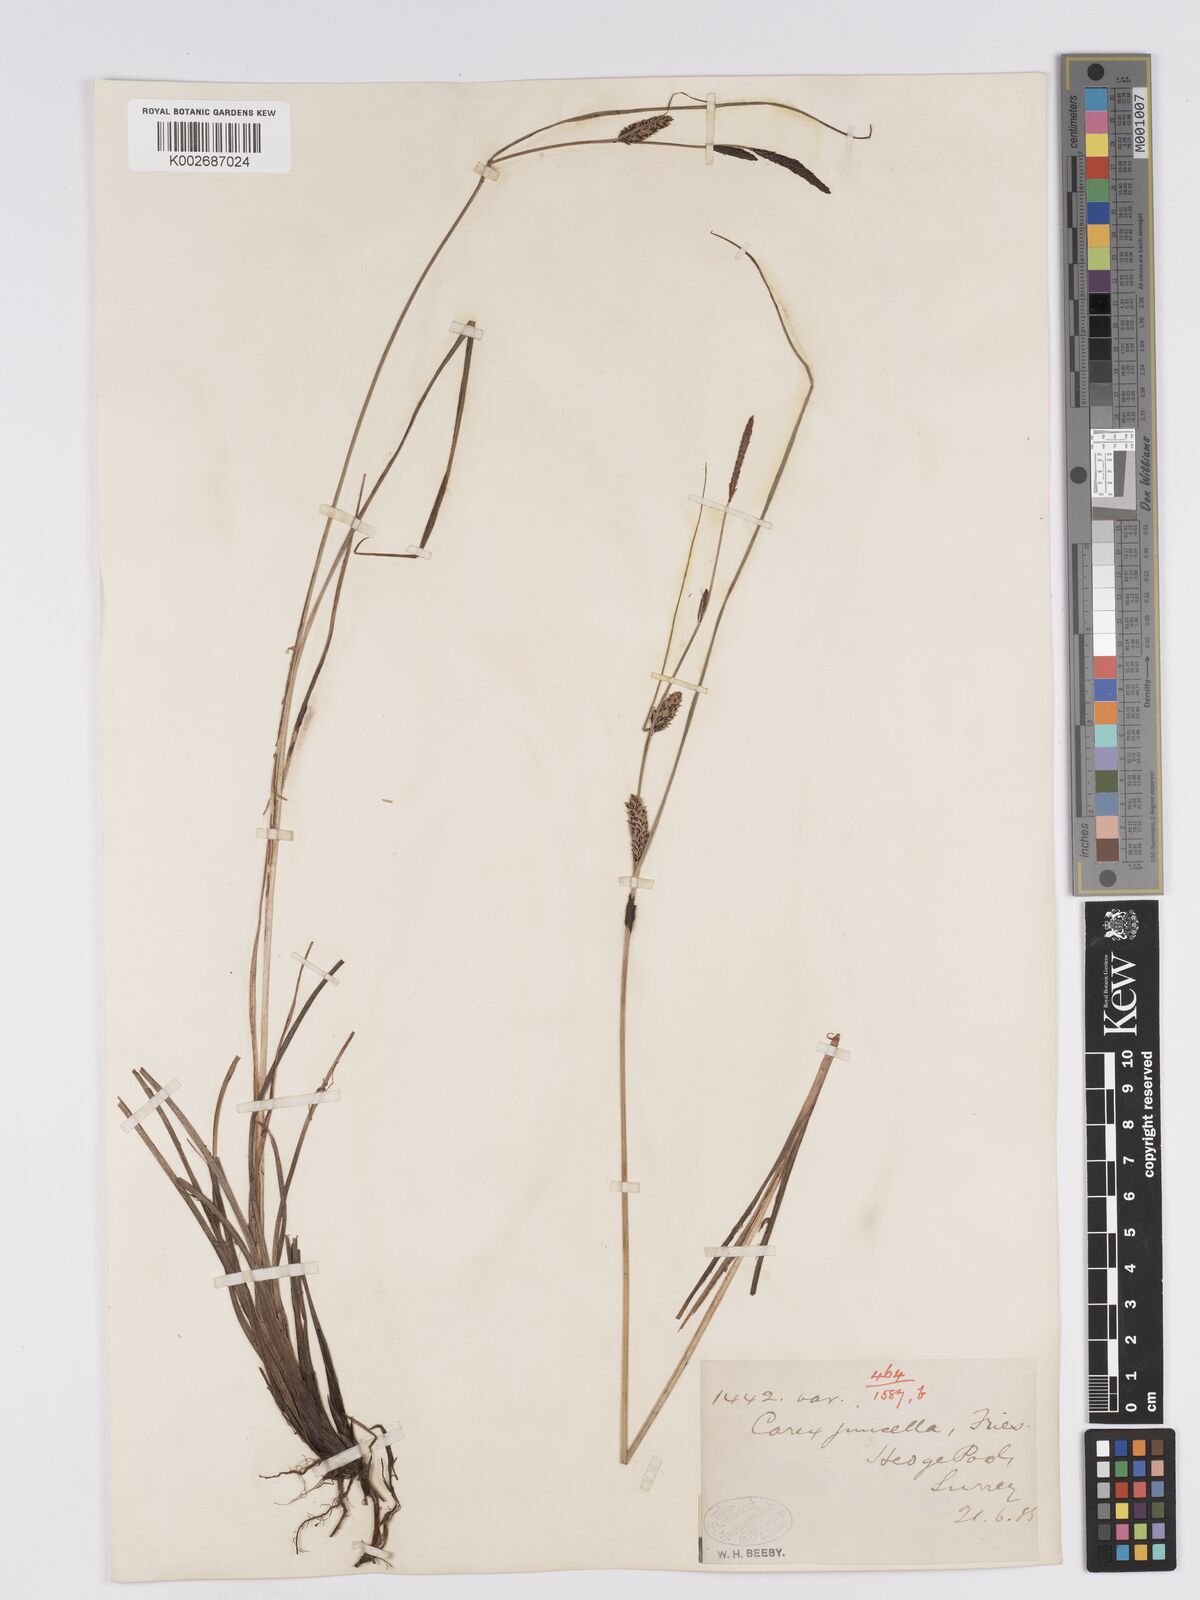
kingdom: Plantae
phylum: Tracheophyta
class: Liliopsida
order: Poales
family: Cyperaceae
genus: Carex
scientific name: Carex nigra
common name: Common sedge
